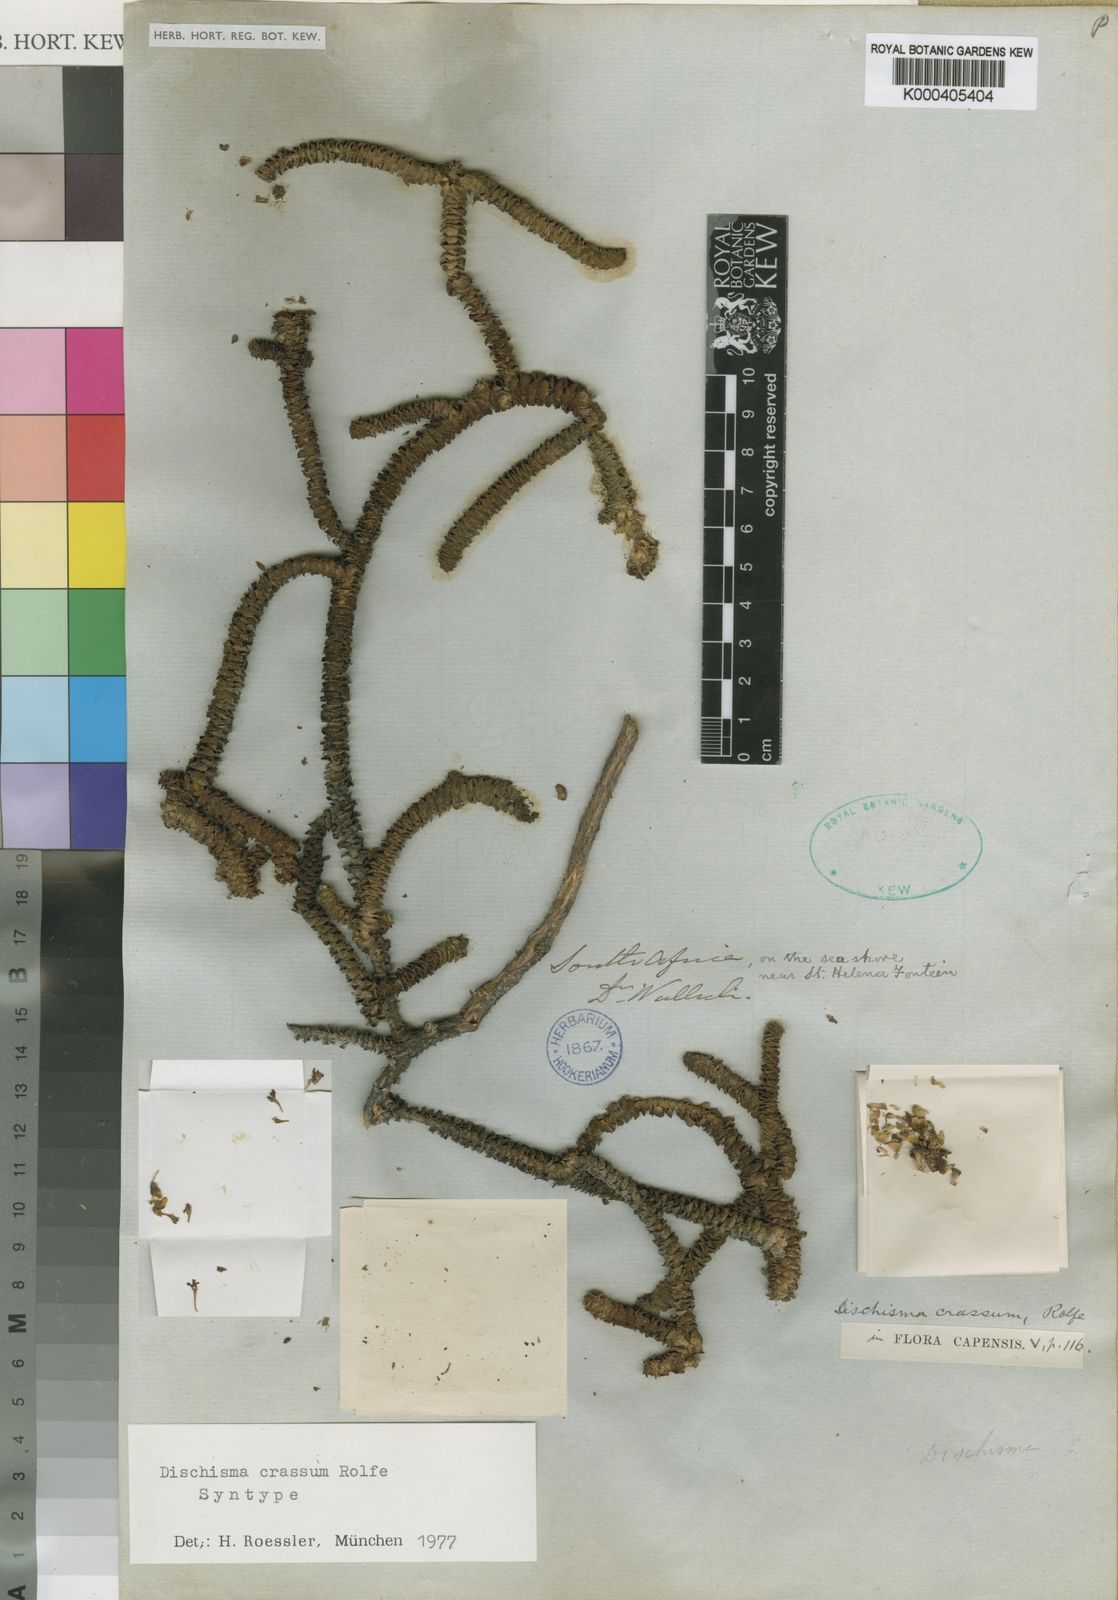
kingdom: Plantae
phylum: Tracheophyta
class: Magnoliopsida
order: Lamiales
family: Scrophulariaceae
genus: Dischisma
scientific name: Dischisma crassum
